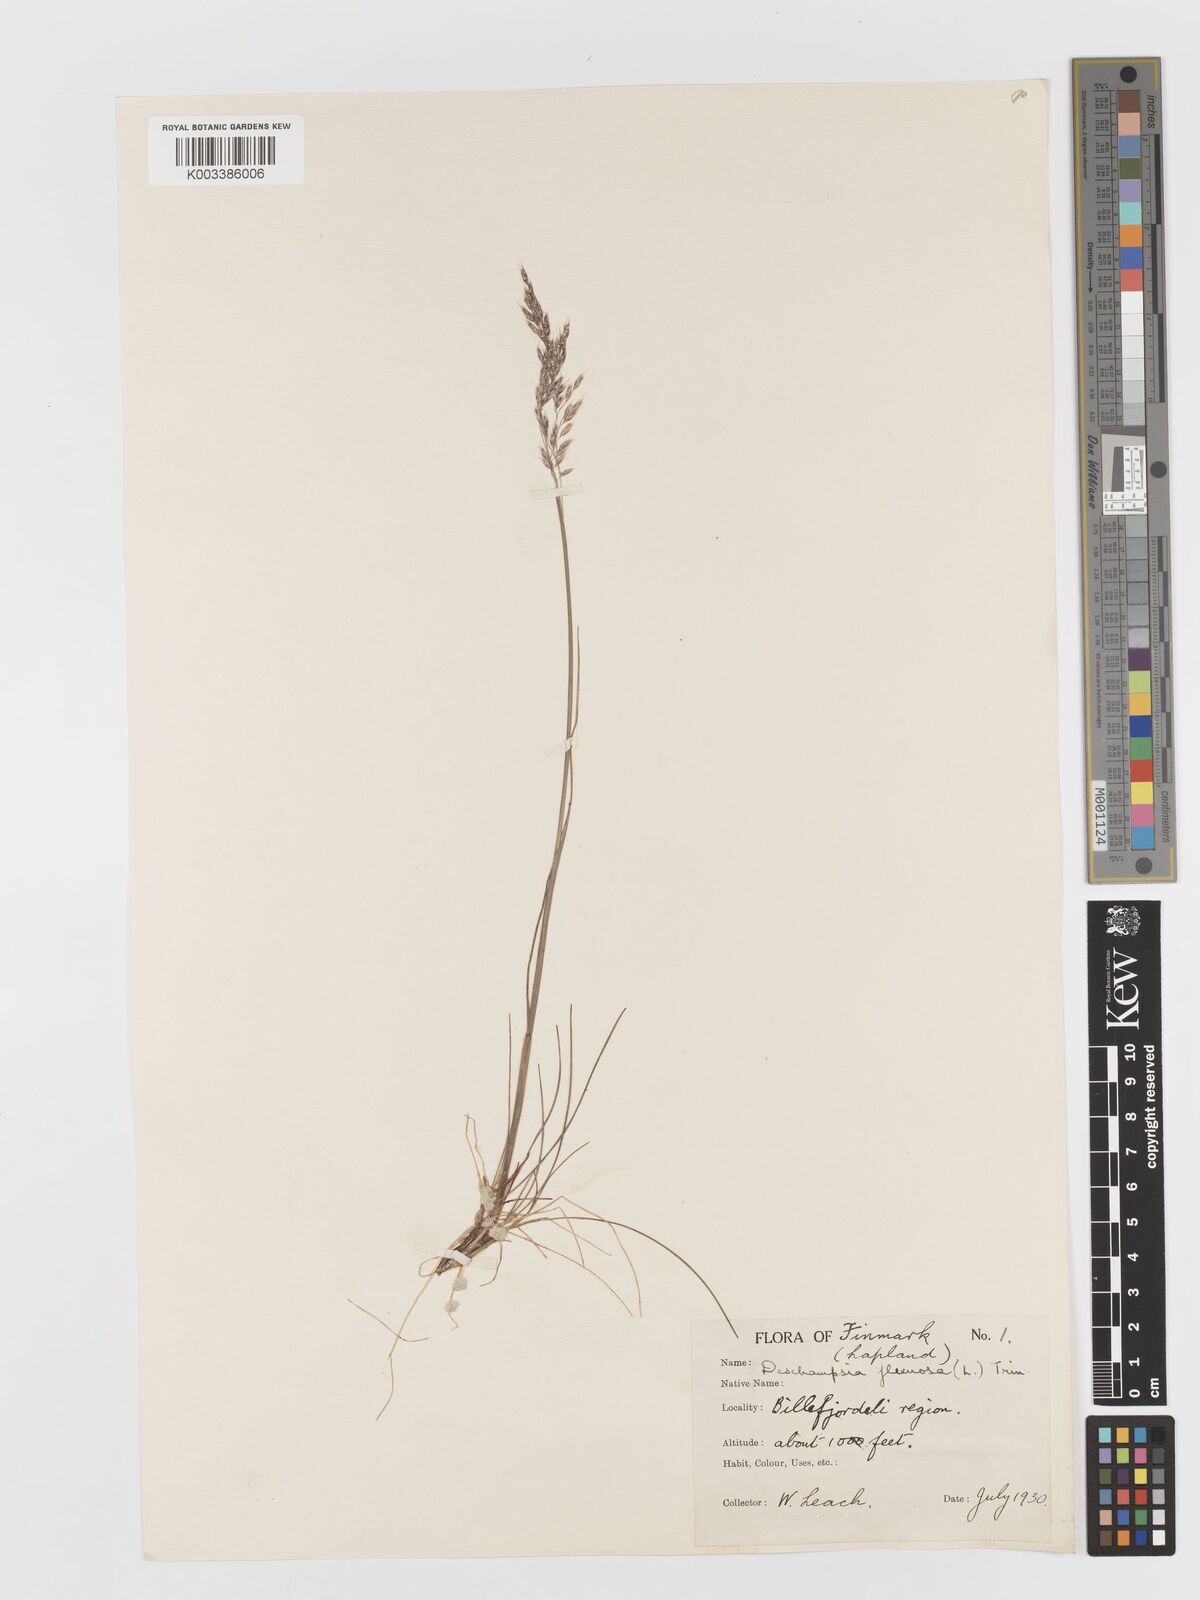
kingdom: Plantae
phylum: Tracheophyta
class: Liliopsida
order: Poales
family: Poaceae
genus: Avenella
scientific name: Avenella flexuosa
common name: Wavy hairgrass
